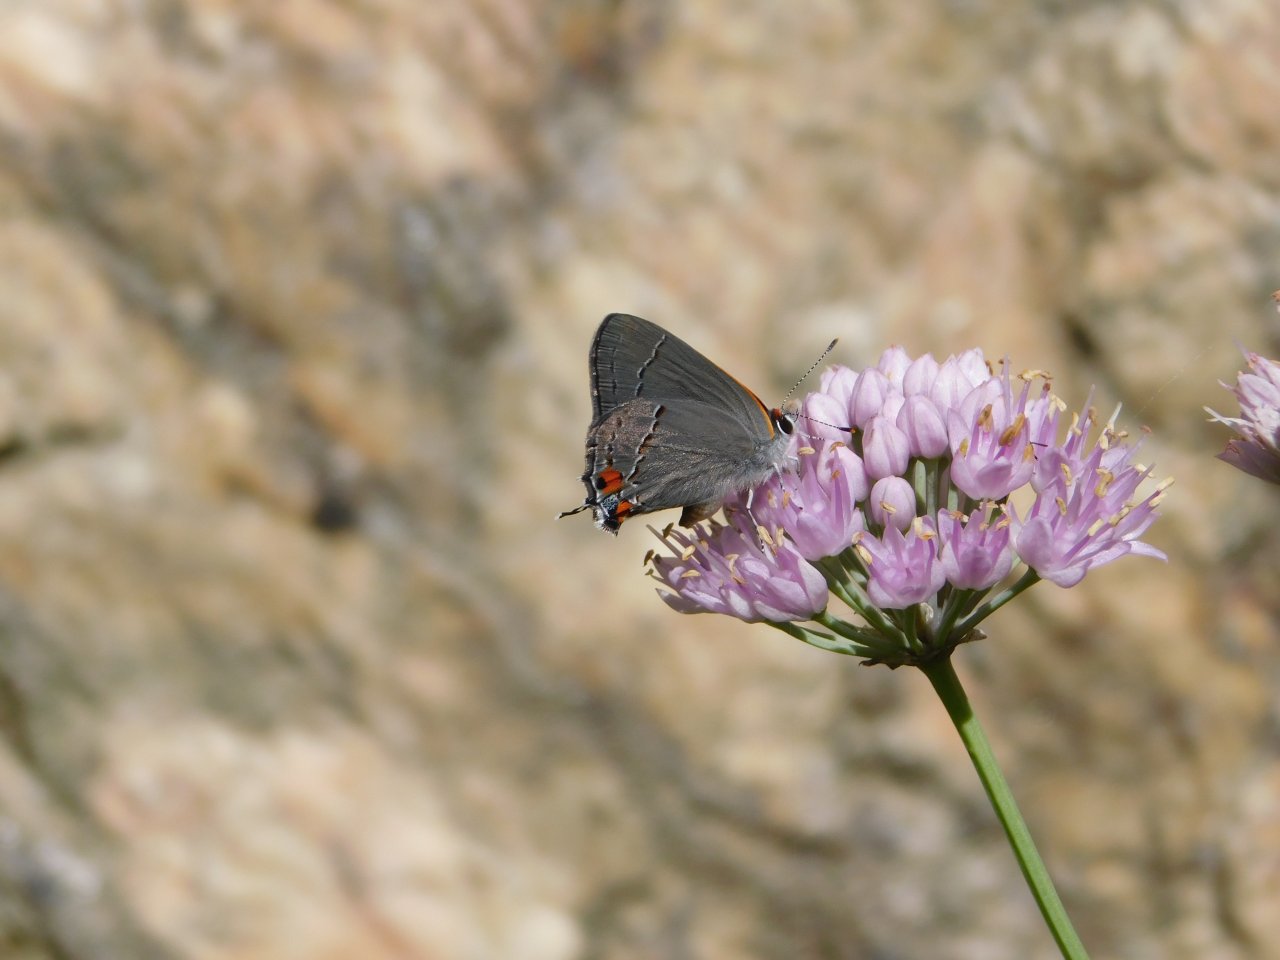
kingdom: Animalia
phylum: Arthropoda
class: Insecta
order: Lepidoptera
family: Lycaenidae
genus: Strymon
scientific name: Strymon melinus
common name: Gray Hairstreak
